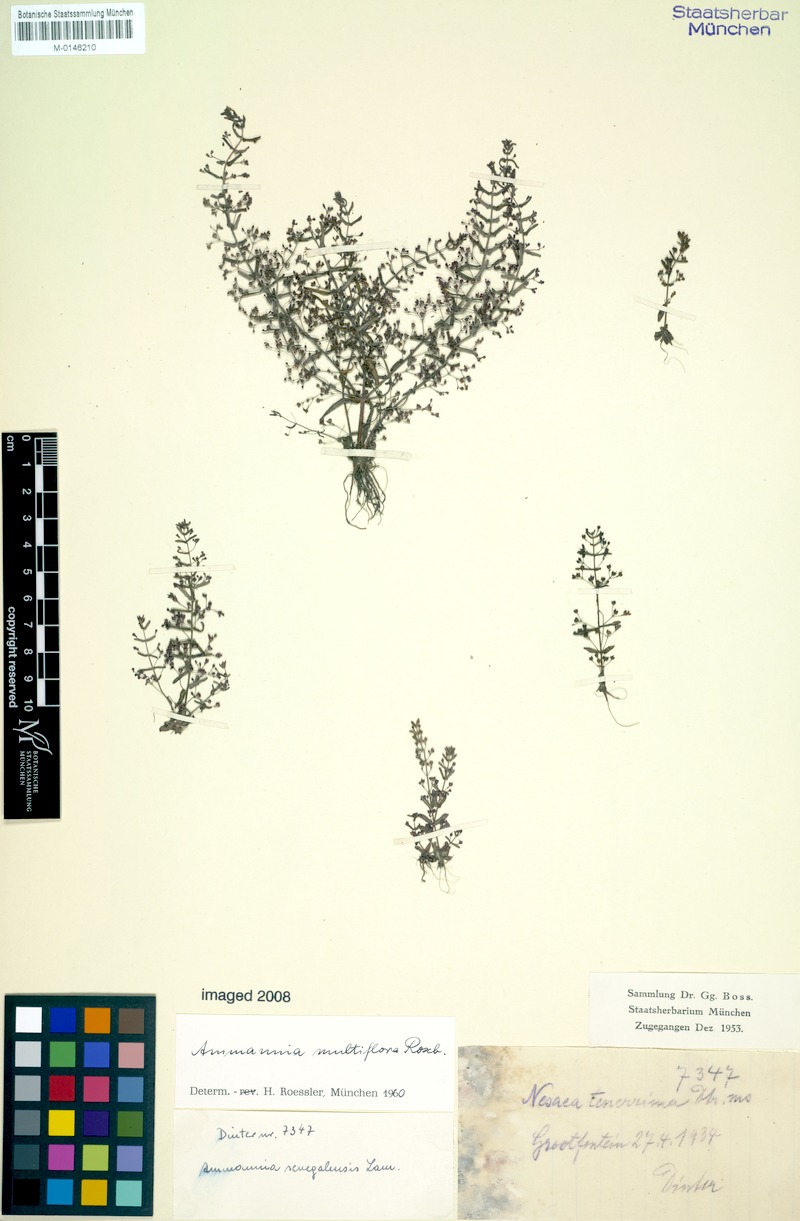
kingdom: Plantae
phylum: Tracheophyta
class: Magnoliopsida
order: Myrtales
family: Lythraceae
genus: Ammannia
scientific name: Ammannia auriculata
